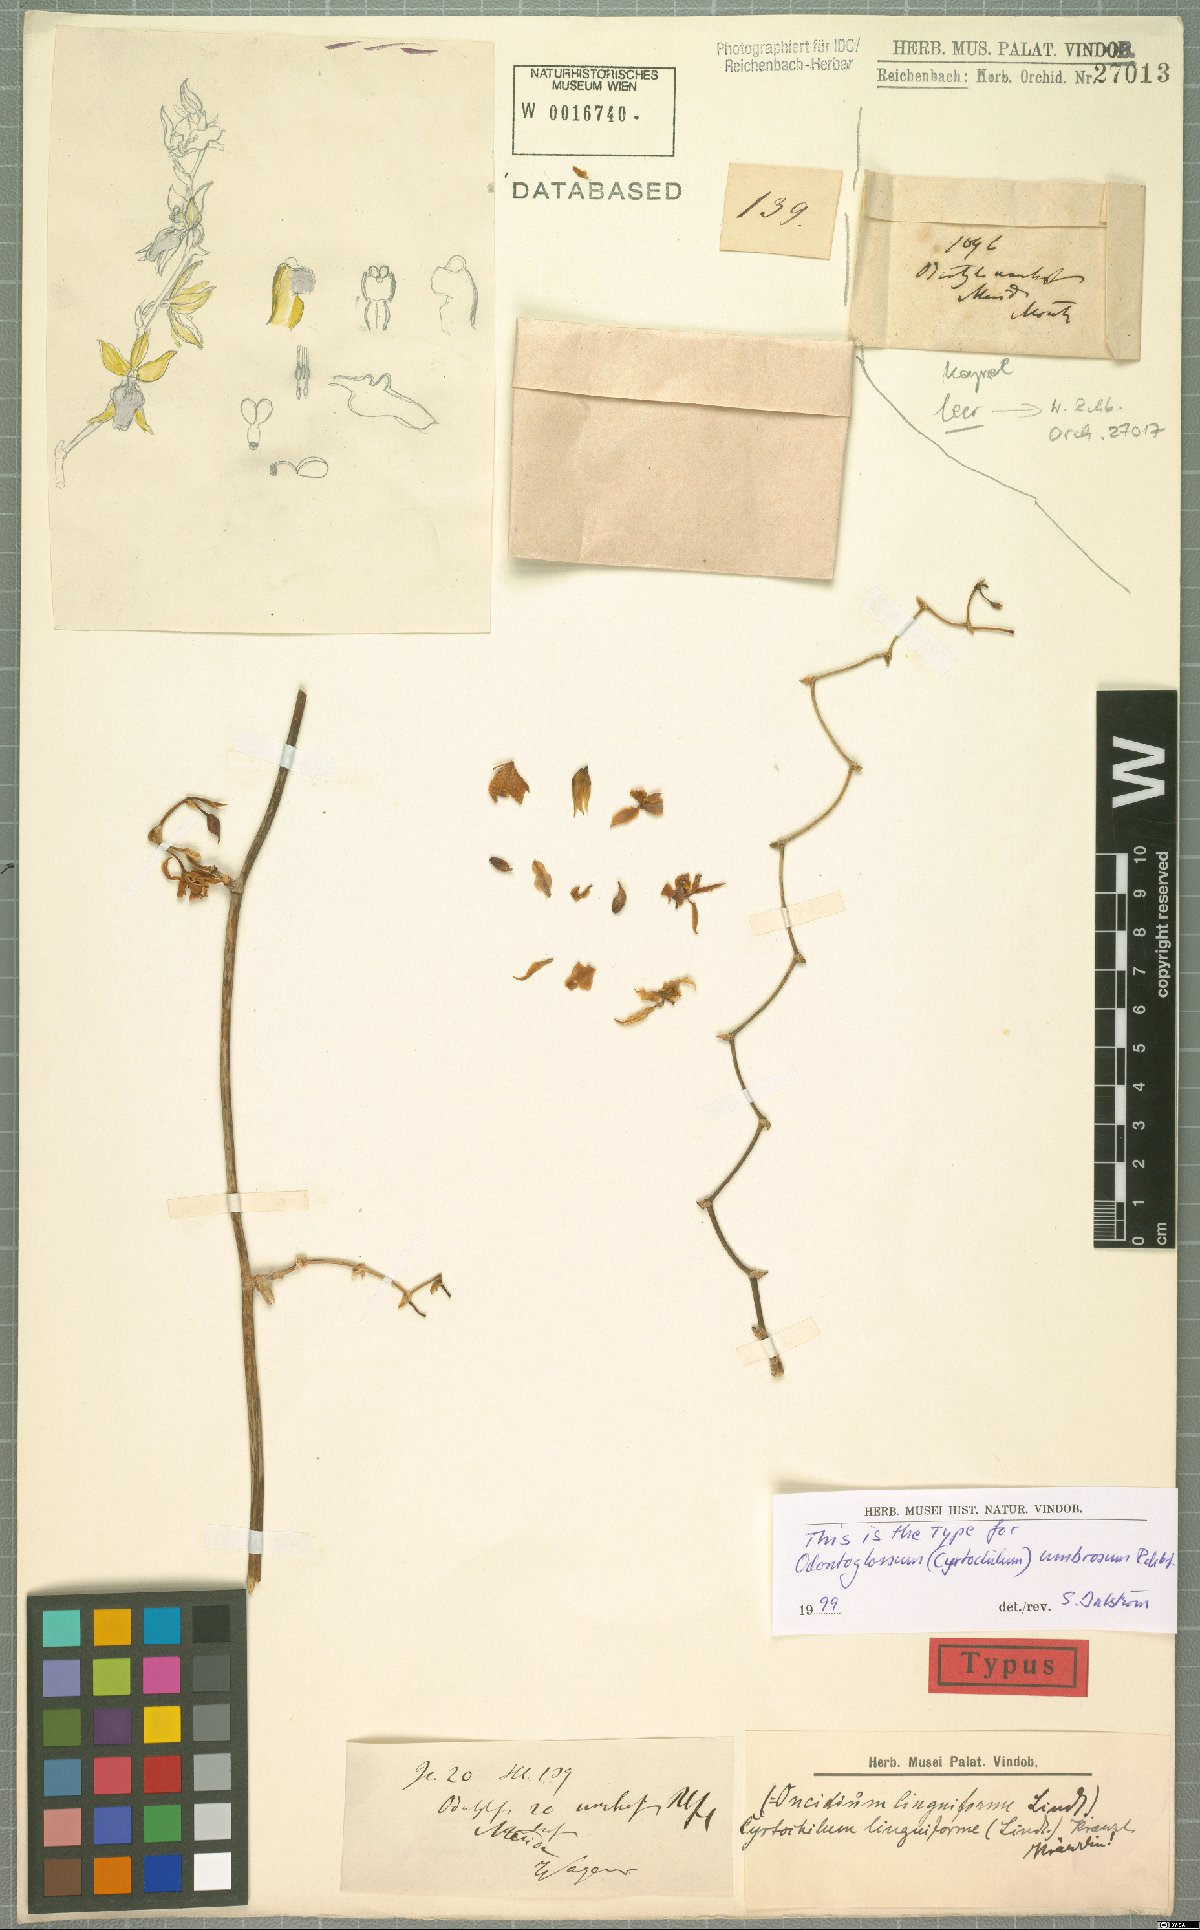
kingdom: Plantae
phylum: Tracheophyta
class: Liliopsida
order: Asparagales
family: Orchidaceae
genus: Cyrtochilum
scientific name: Cyrtochilum linguiforme
